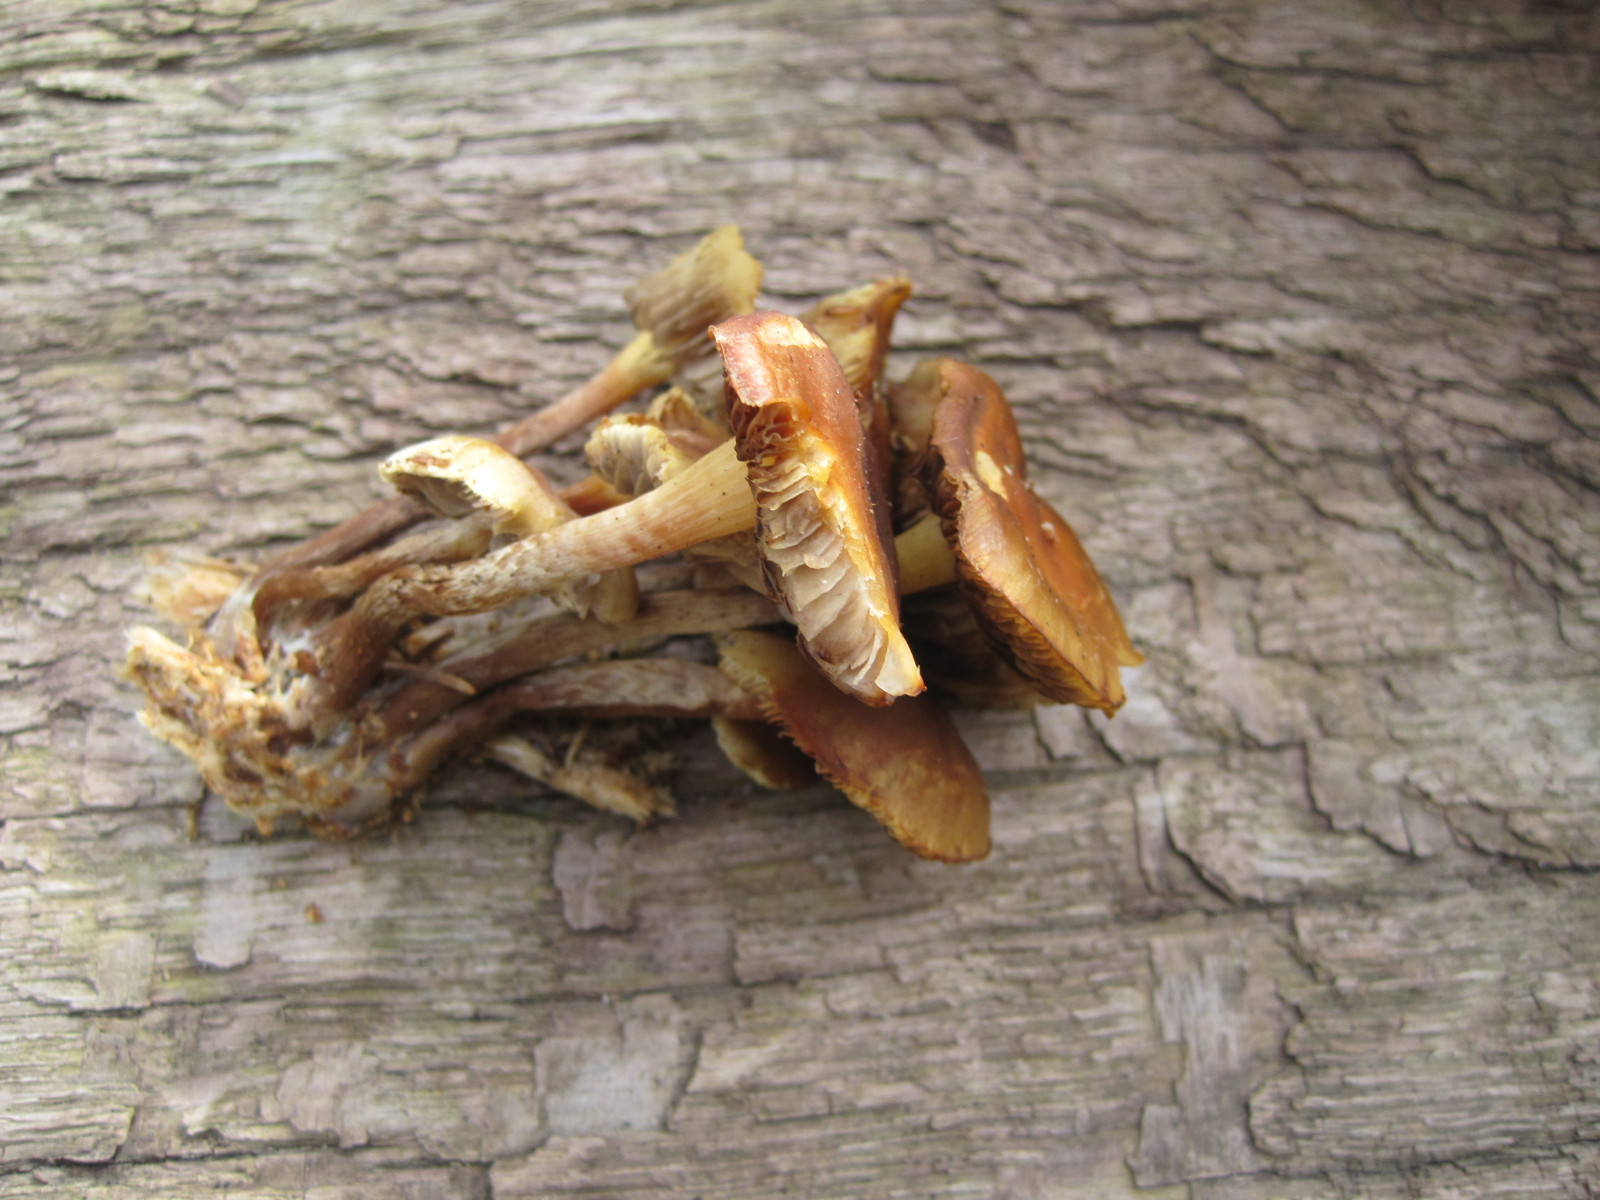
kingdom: Fungi
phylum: Basidiomycota
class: Agaricomycetes
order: Agaricales
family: Strophariaceae
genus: Hypholoma
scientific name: Hypholoma capnoides
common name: gran-svovlhat
